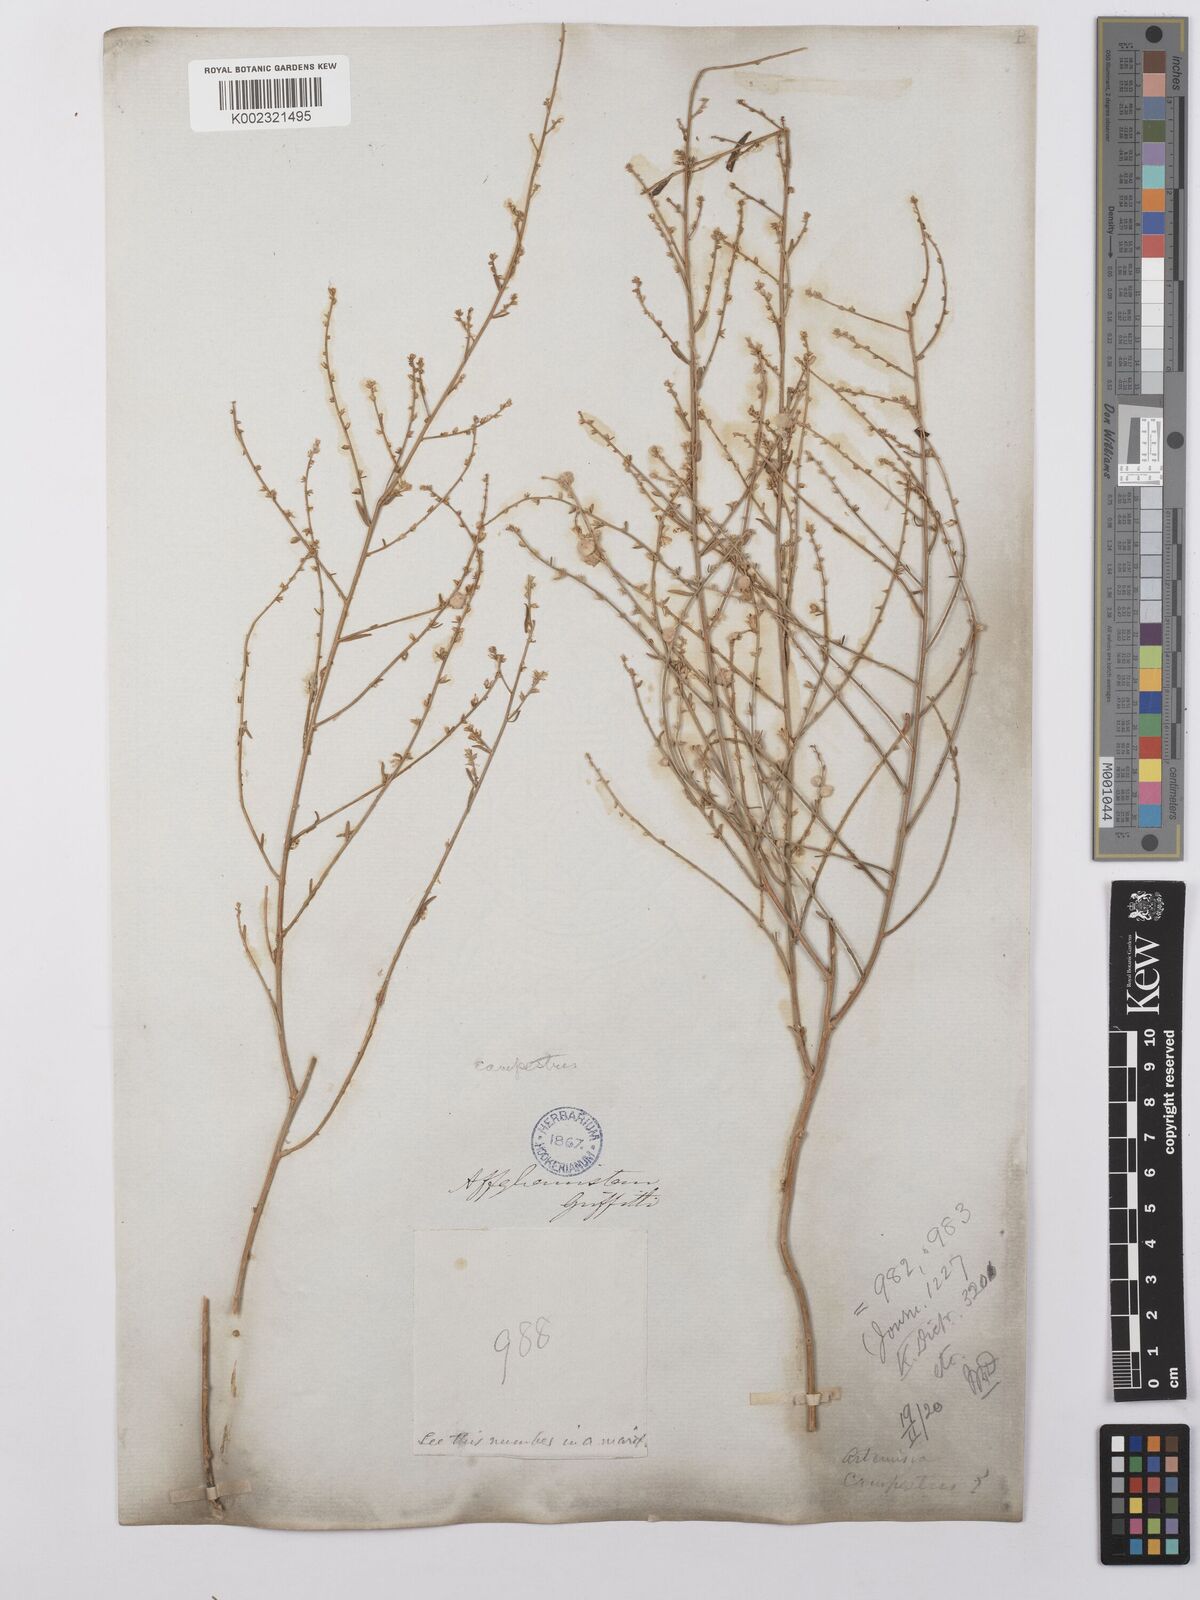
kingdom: Plantae
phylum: Tracheophyta
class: Magnoliopsida
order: Asterales
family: Asteraceae
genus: Artemisia
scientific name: Artemisia cina
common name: Levant wormseed
